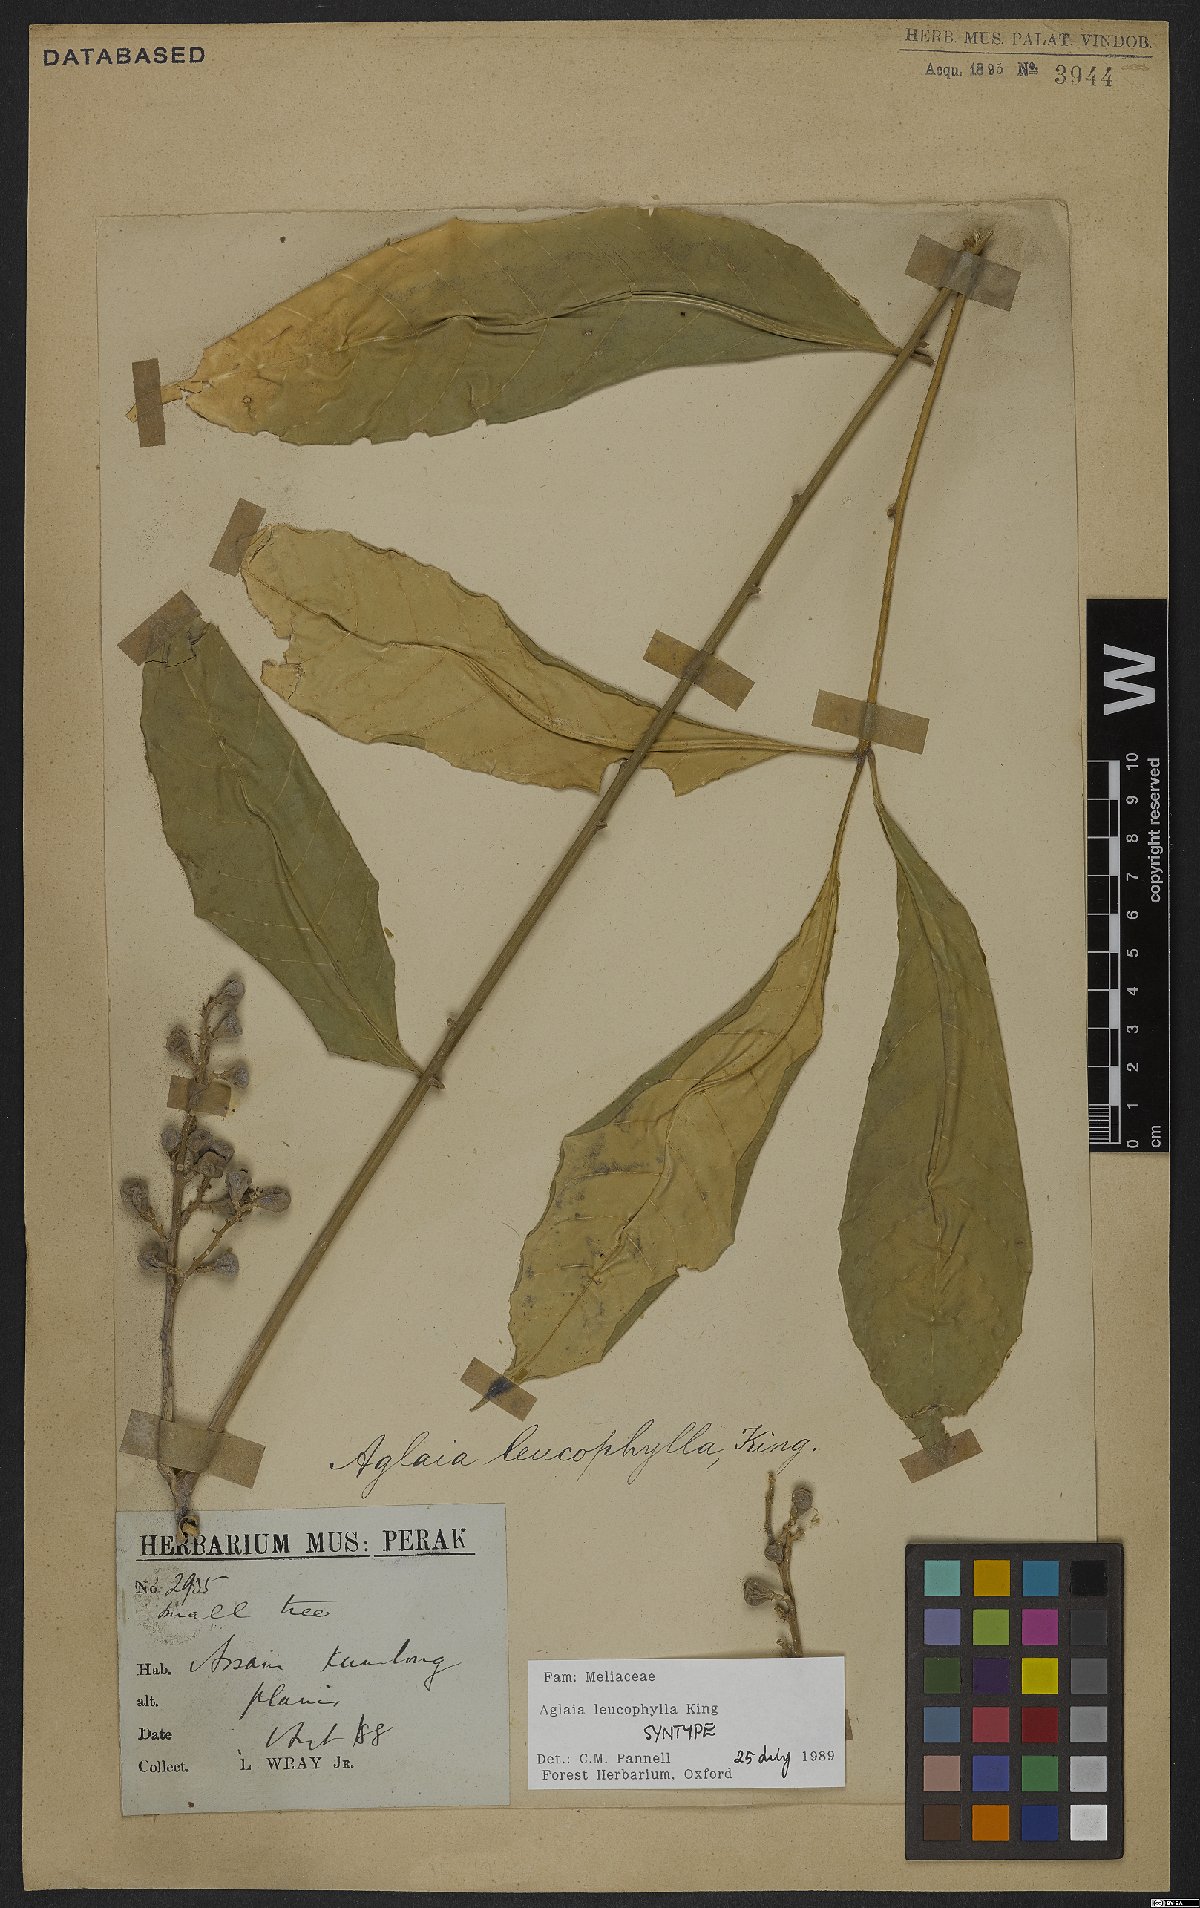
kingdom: Plantae
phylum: Tracheophyta
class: Magnoliopsida
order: Sapindales
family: Meliaceae
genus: Aglaia
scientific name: Aglaia leucophylla
